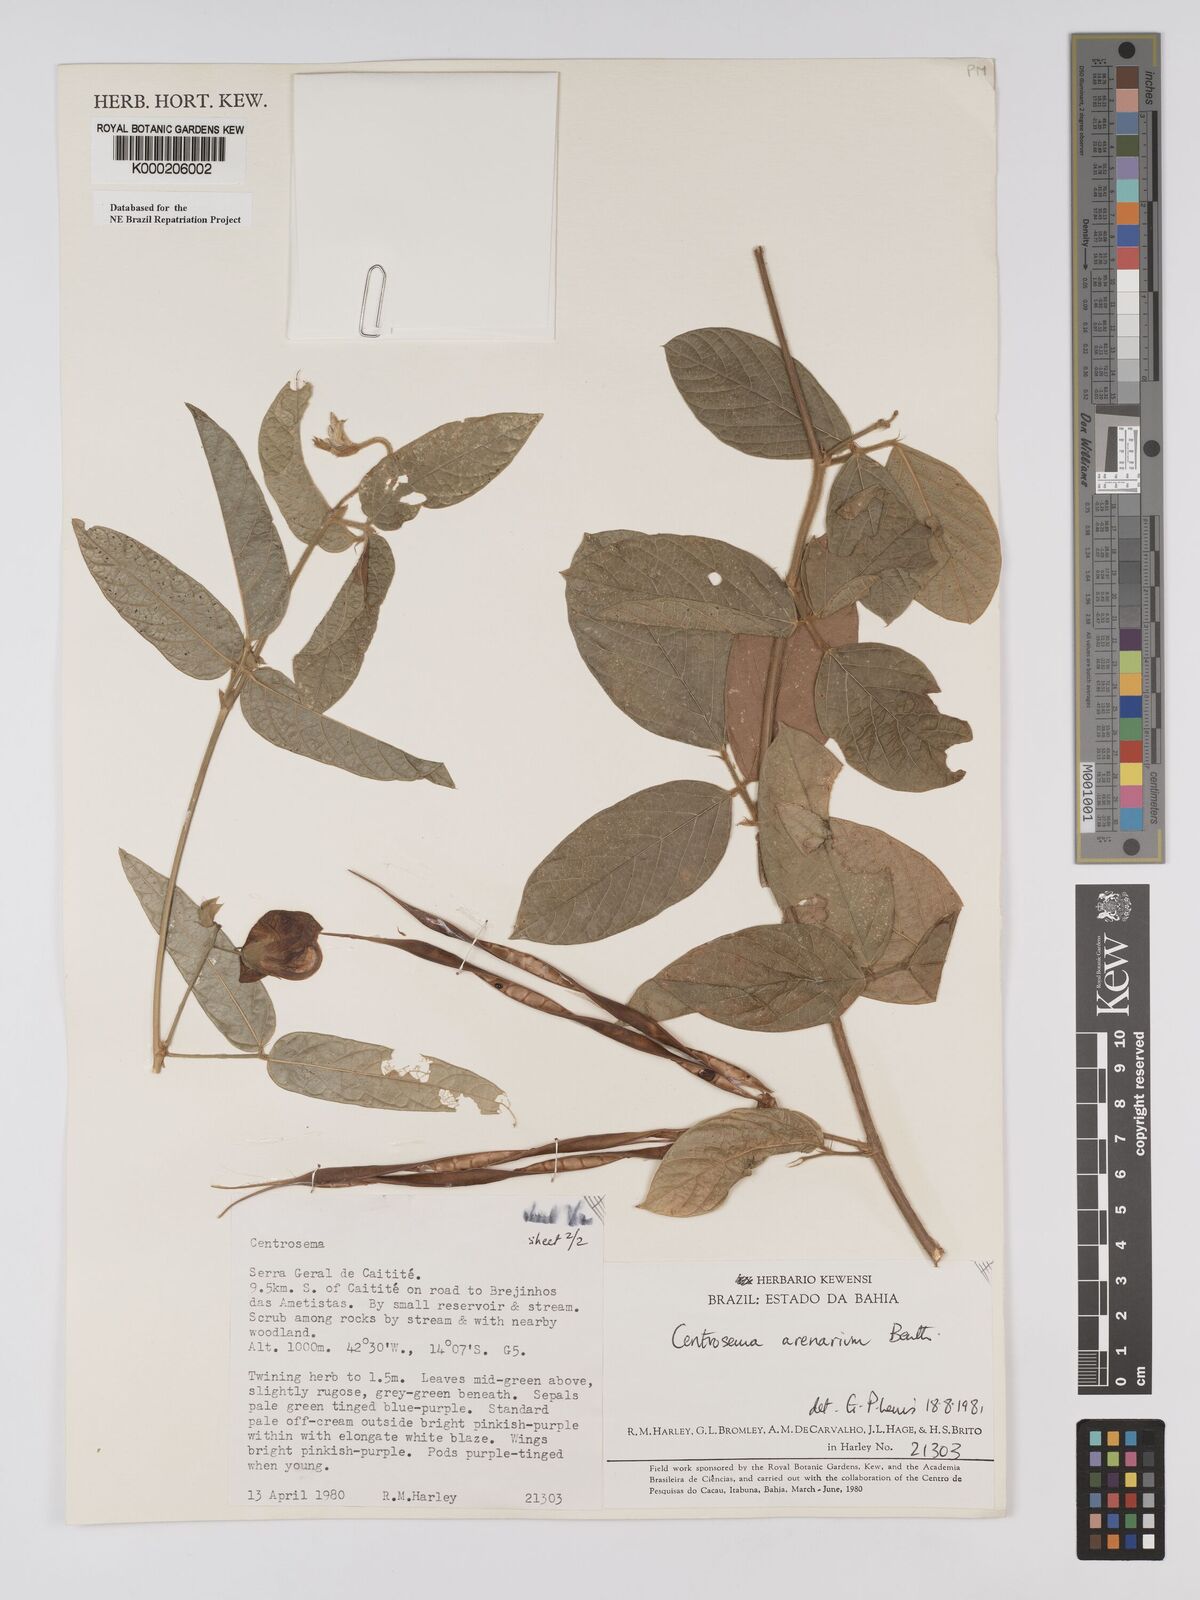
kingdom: Plantae
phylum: Tracheophyta
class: Magnoliopsida
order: Fabales
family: Fabaceae
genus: Centrosema
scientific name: Centrosema arenarium
